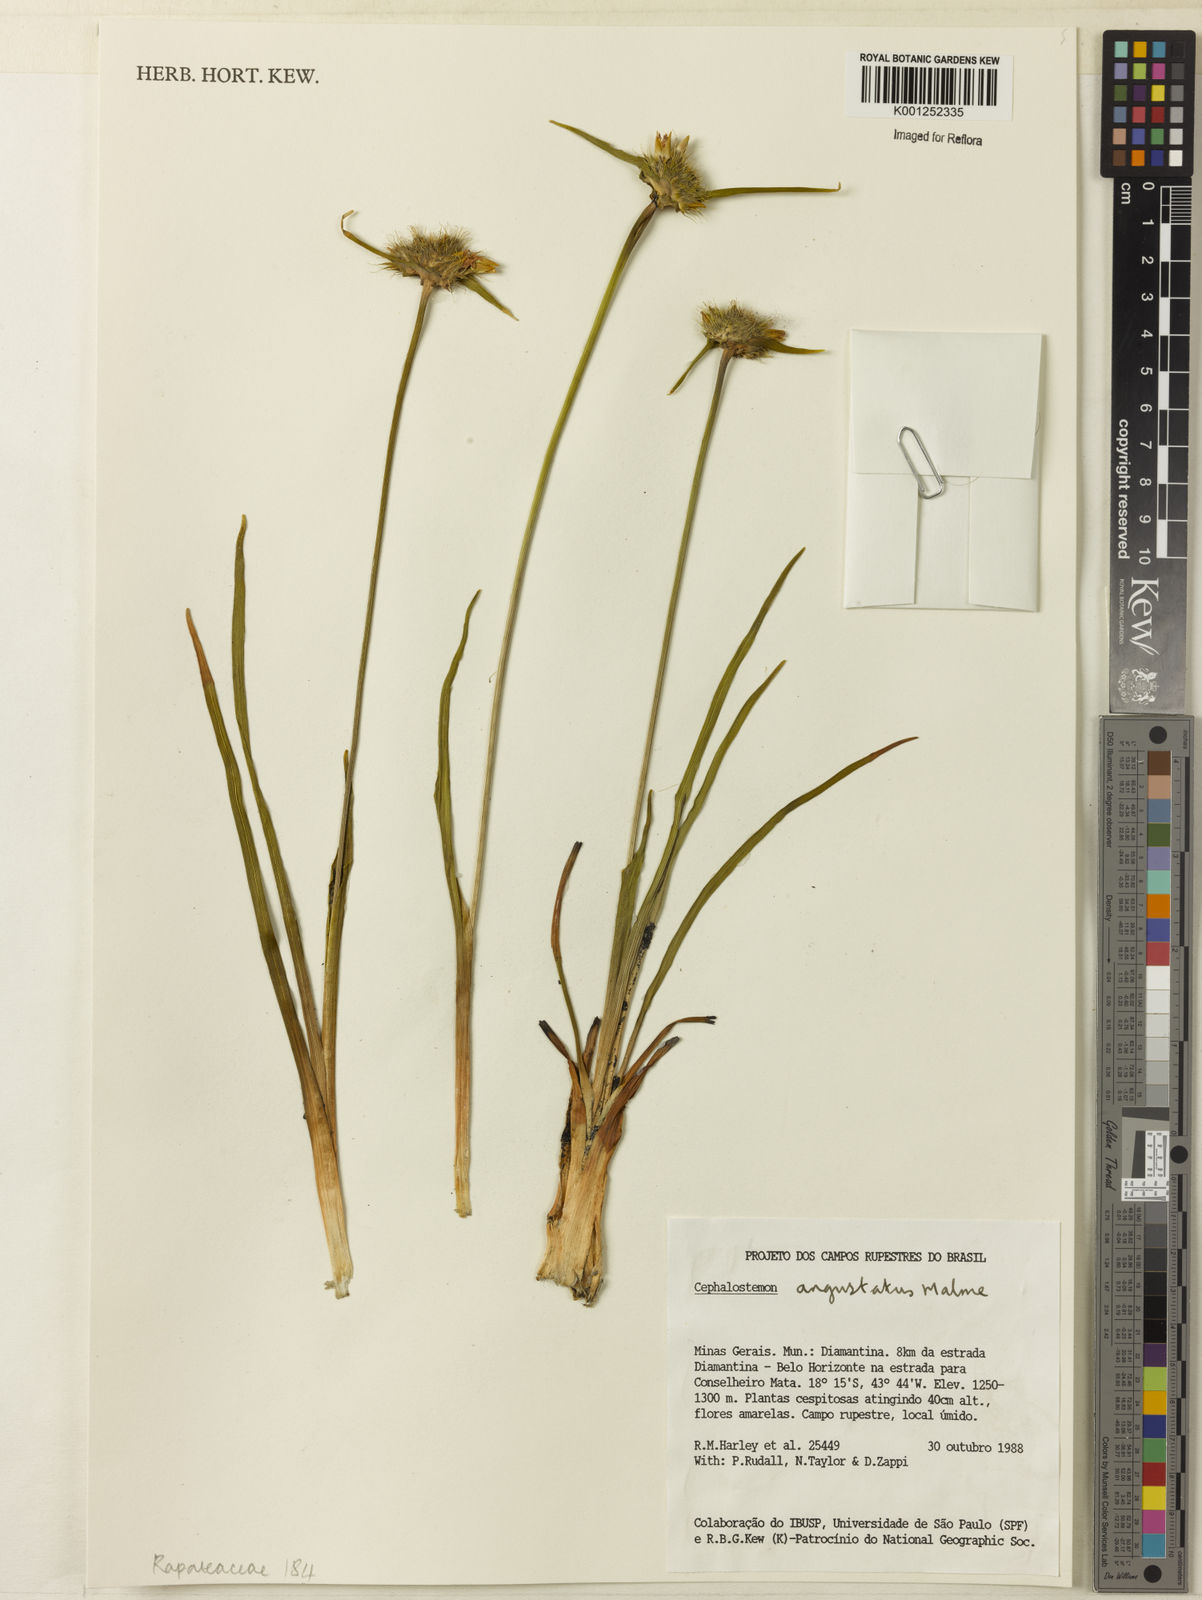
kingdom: Plantae
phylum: Tracheophyta
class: Liliopsida
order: Poales
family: Rapateaceae
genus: Cephalostemon
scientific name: Cephalostemon gracilis
